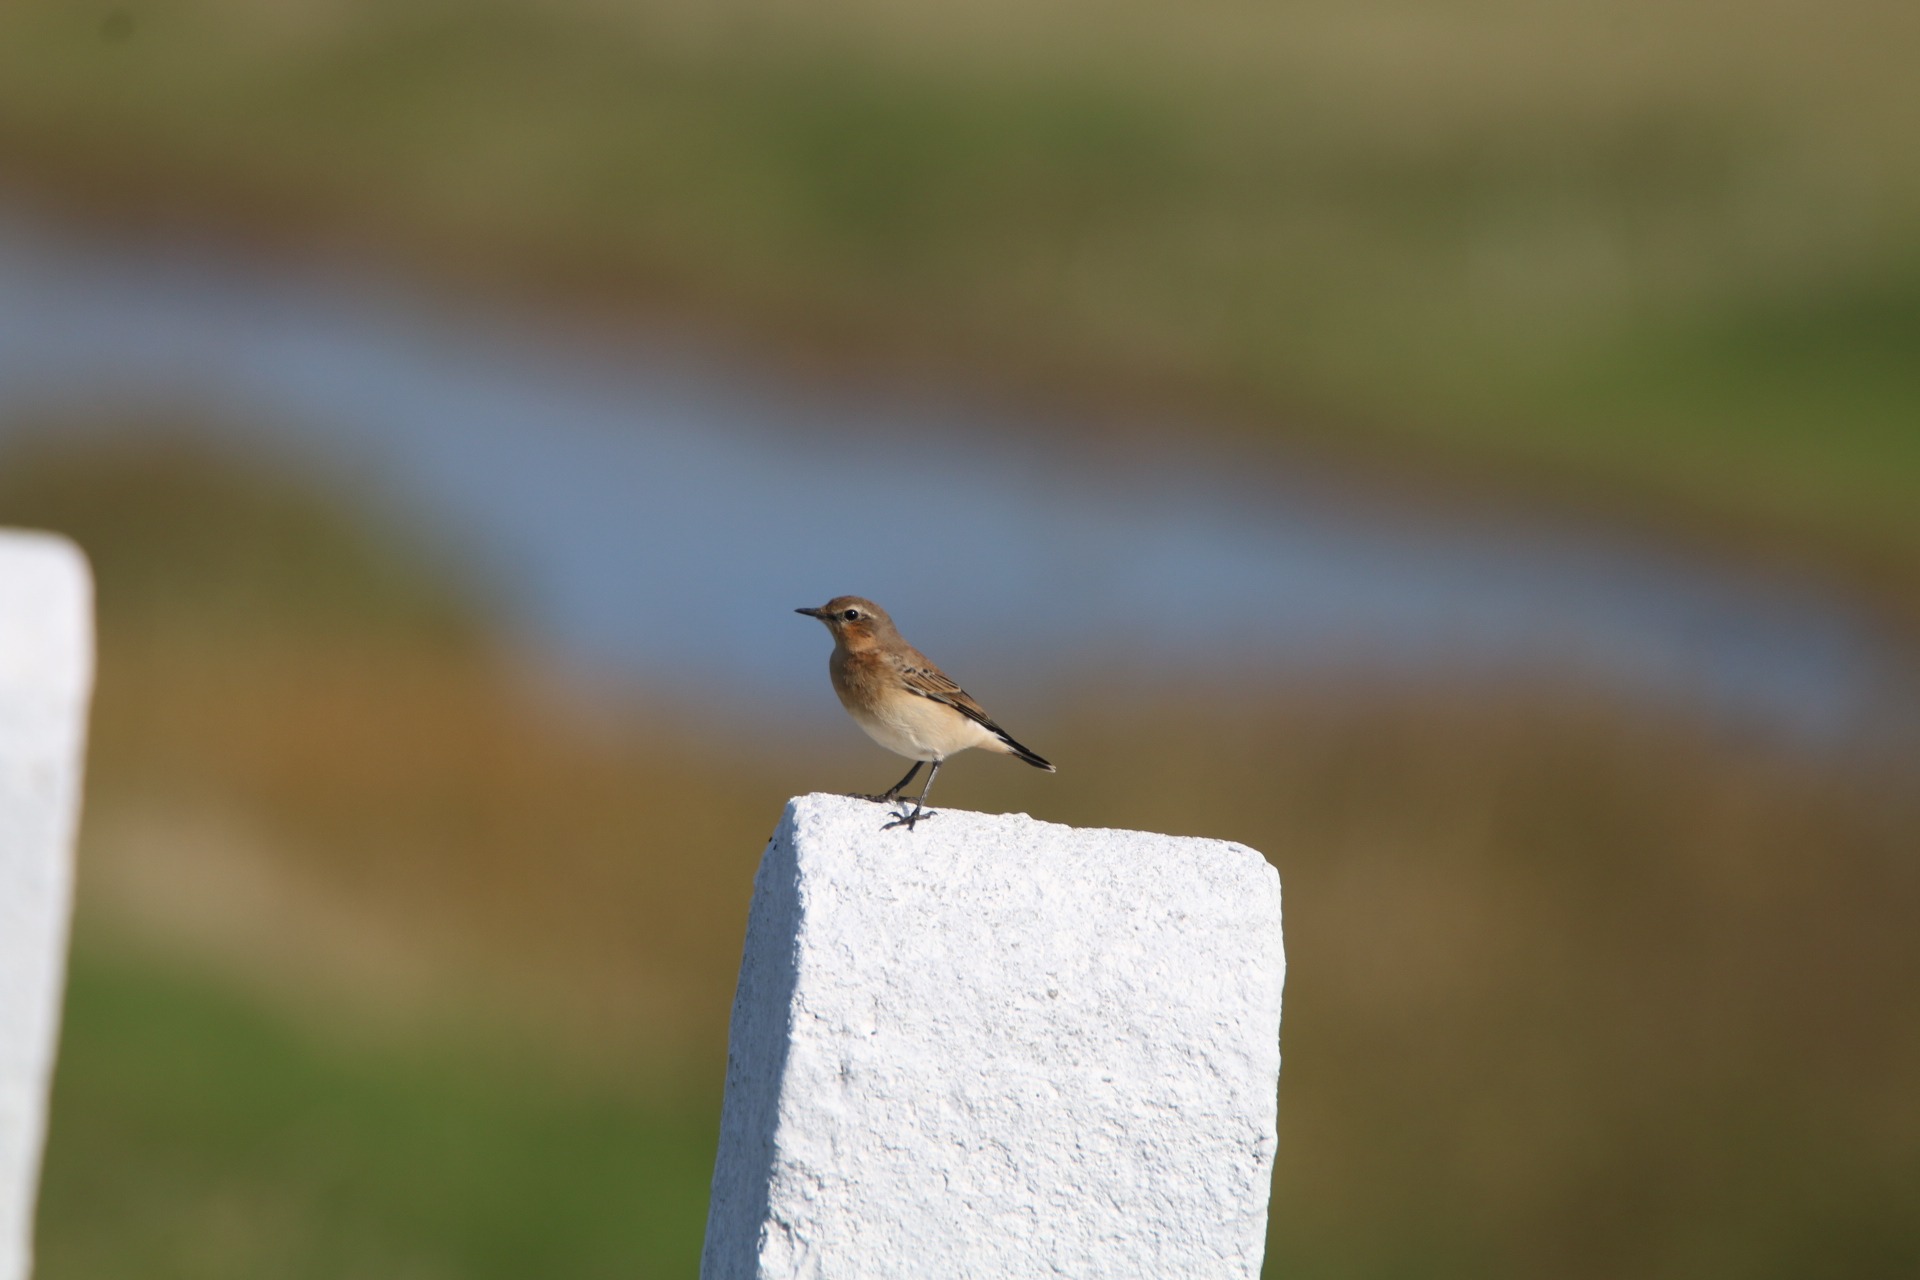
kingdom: Animalia
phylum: Chordata
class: Aves
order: Passeriformes
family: Muscicapidae
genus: Oenanthe
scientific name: Oenanthe oenanthe
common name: Stenpikker
